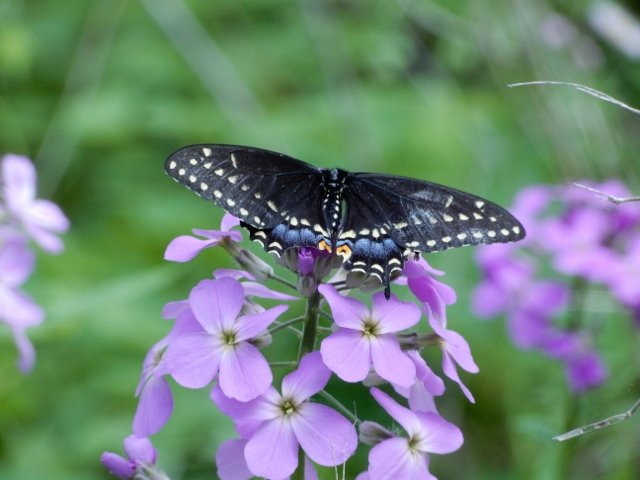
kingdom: Animalia
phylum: Arthropoda
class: Insecta
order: Lepidoptera
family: Papilionidae
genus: Papilio
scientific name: Papilio polyxenes
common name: Black Swallowtail
